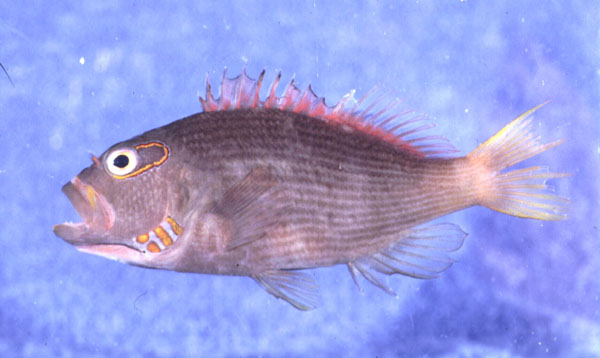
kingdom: Animalia
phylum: Chordata
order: Perciformes
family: Cirrhitidae
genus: Paracirrhites
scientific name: Paracirrhites arcatus
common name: Arc-eye hawkfish
